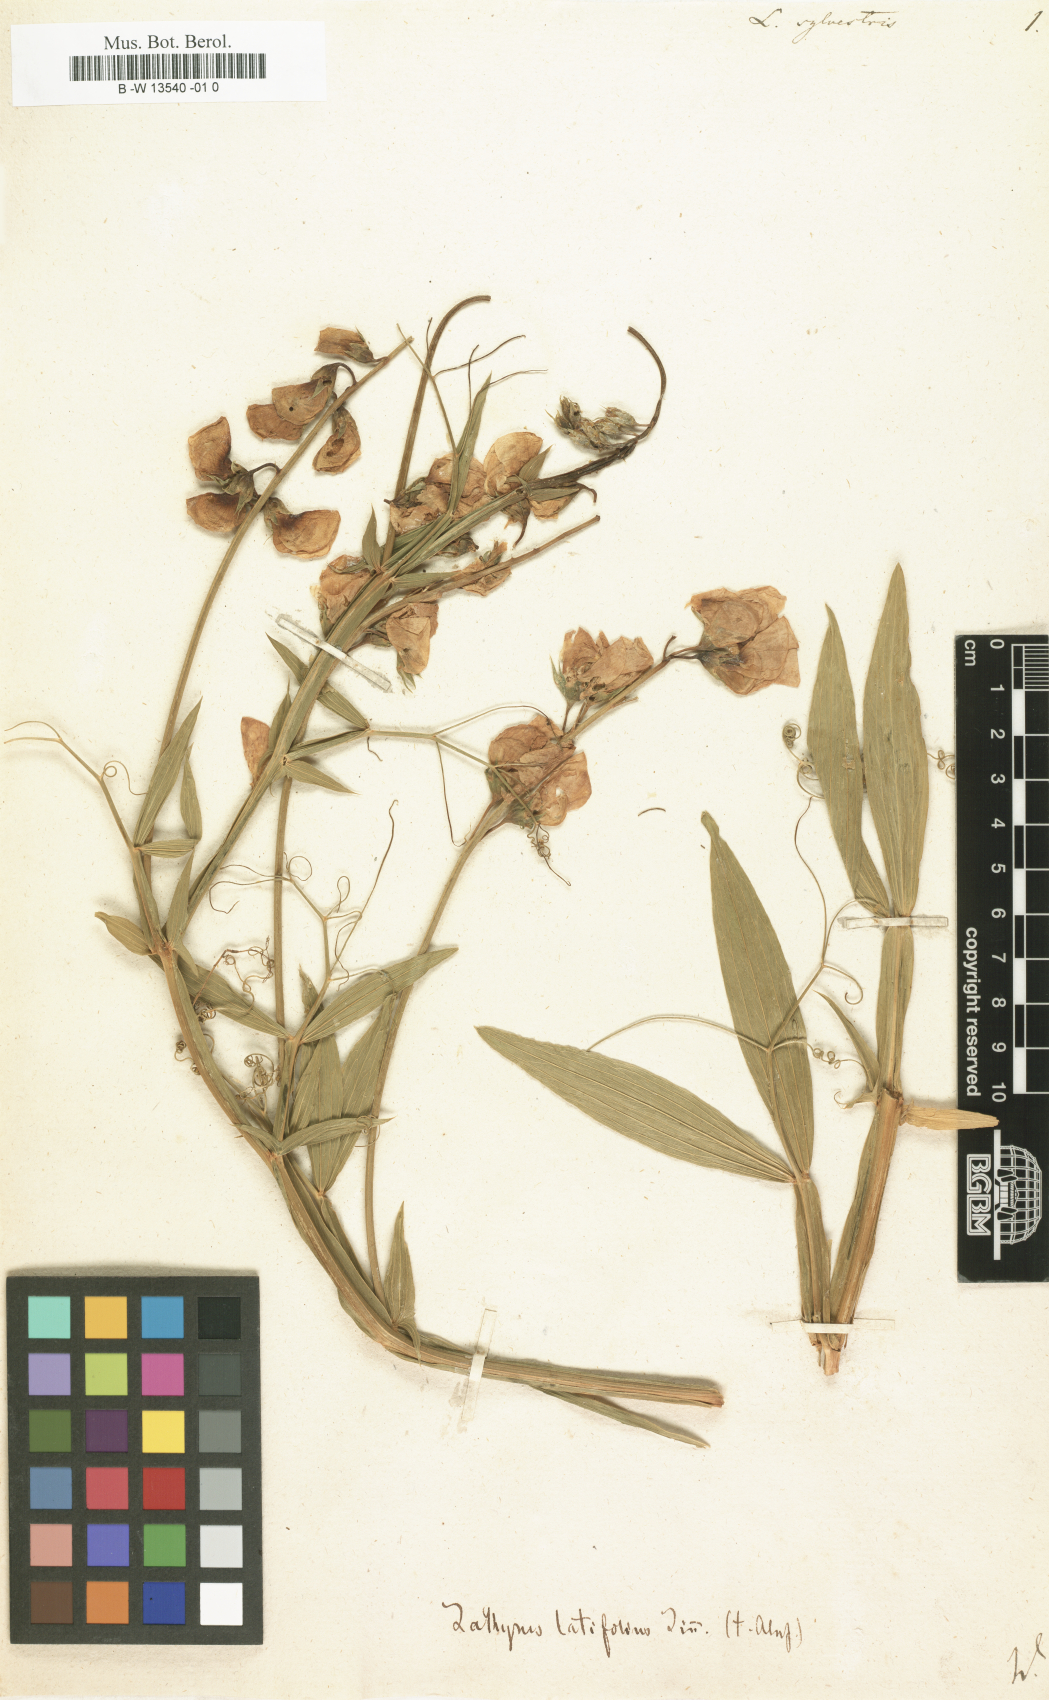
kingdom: Plantae
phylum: Tracheophyta
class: Magnoliopsida
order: Fabales
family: Fabaceae
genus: Lathyrus
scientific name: Lathyrus sylvestris
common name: Flat pea
